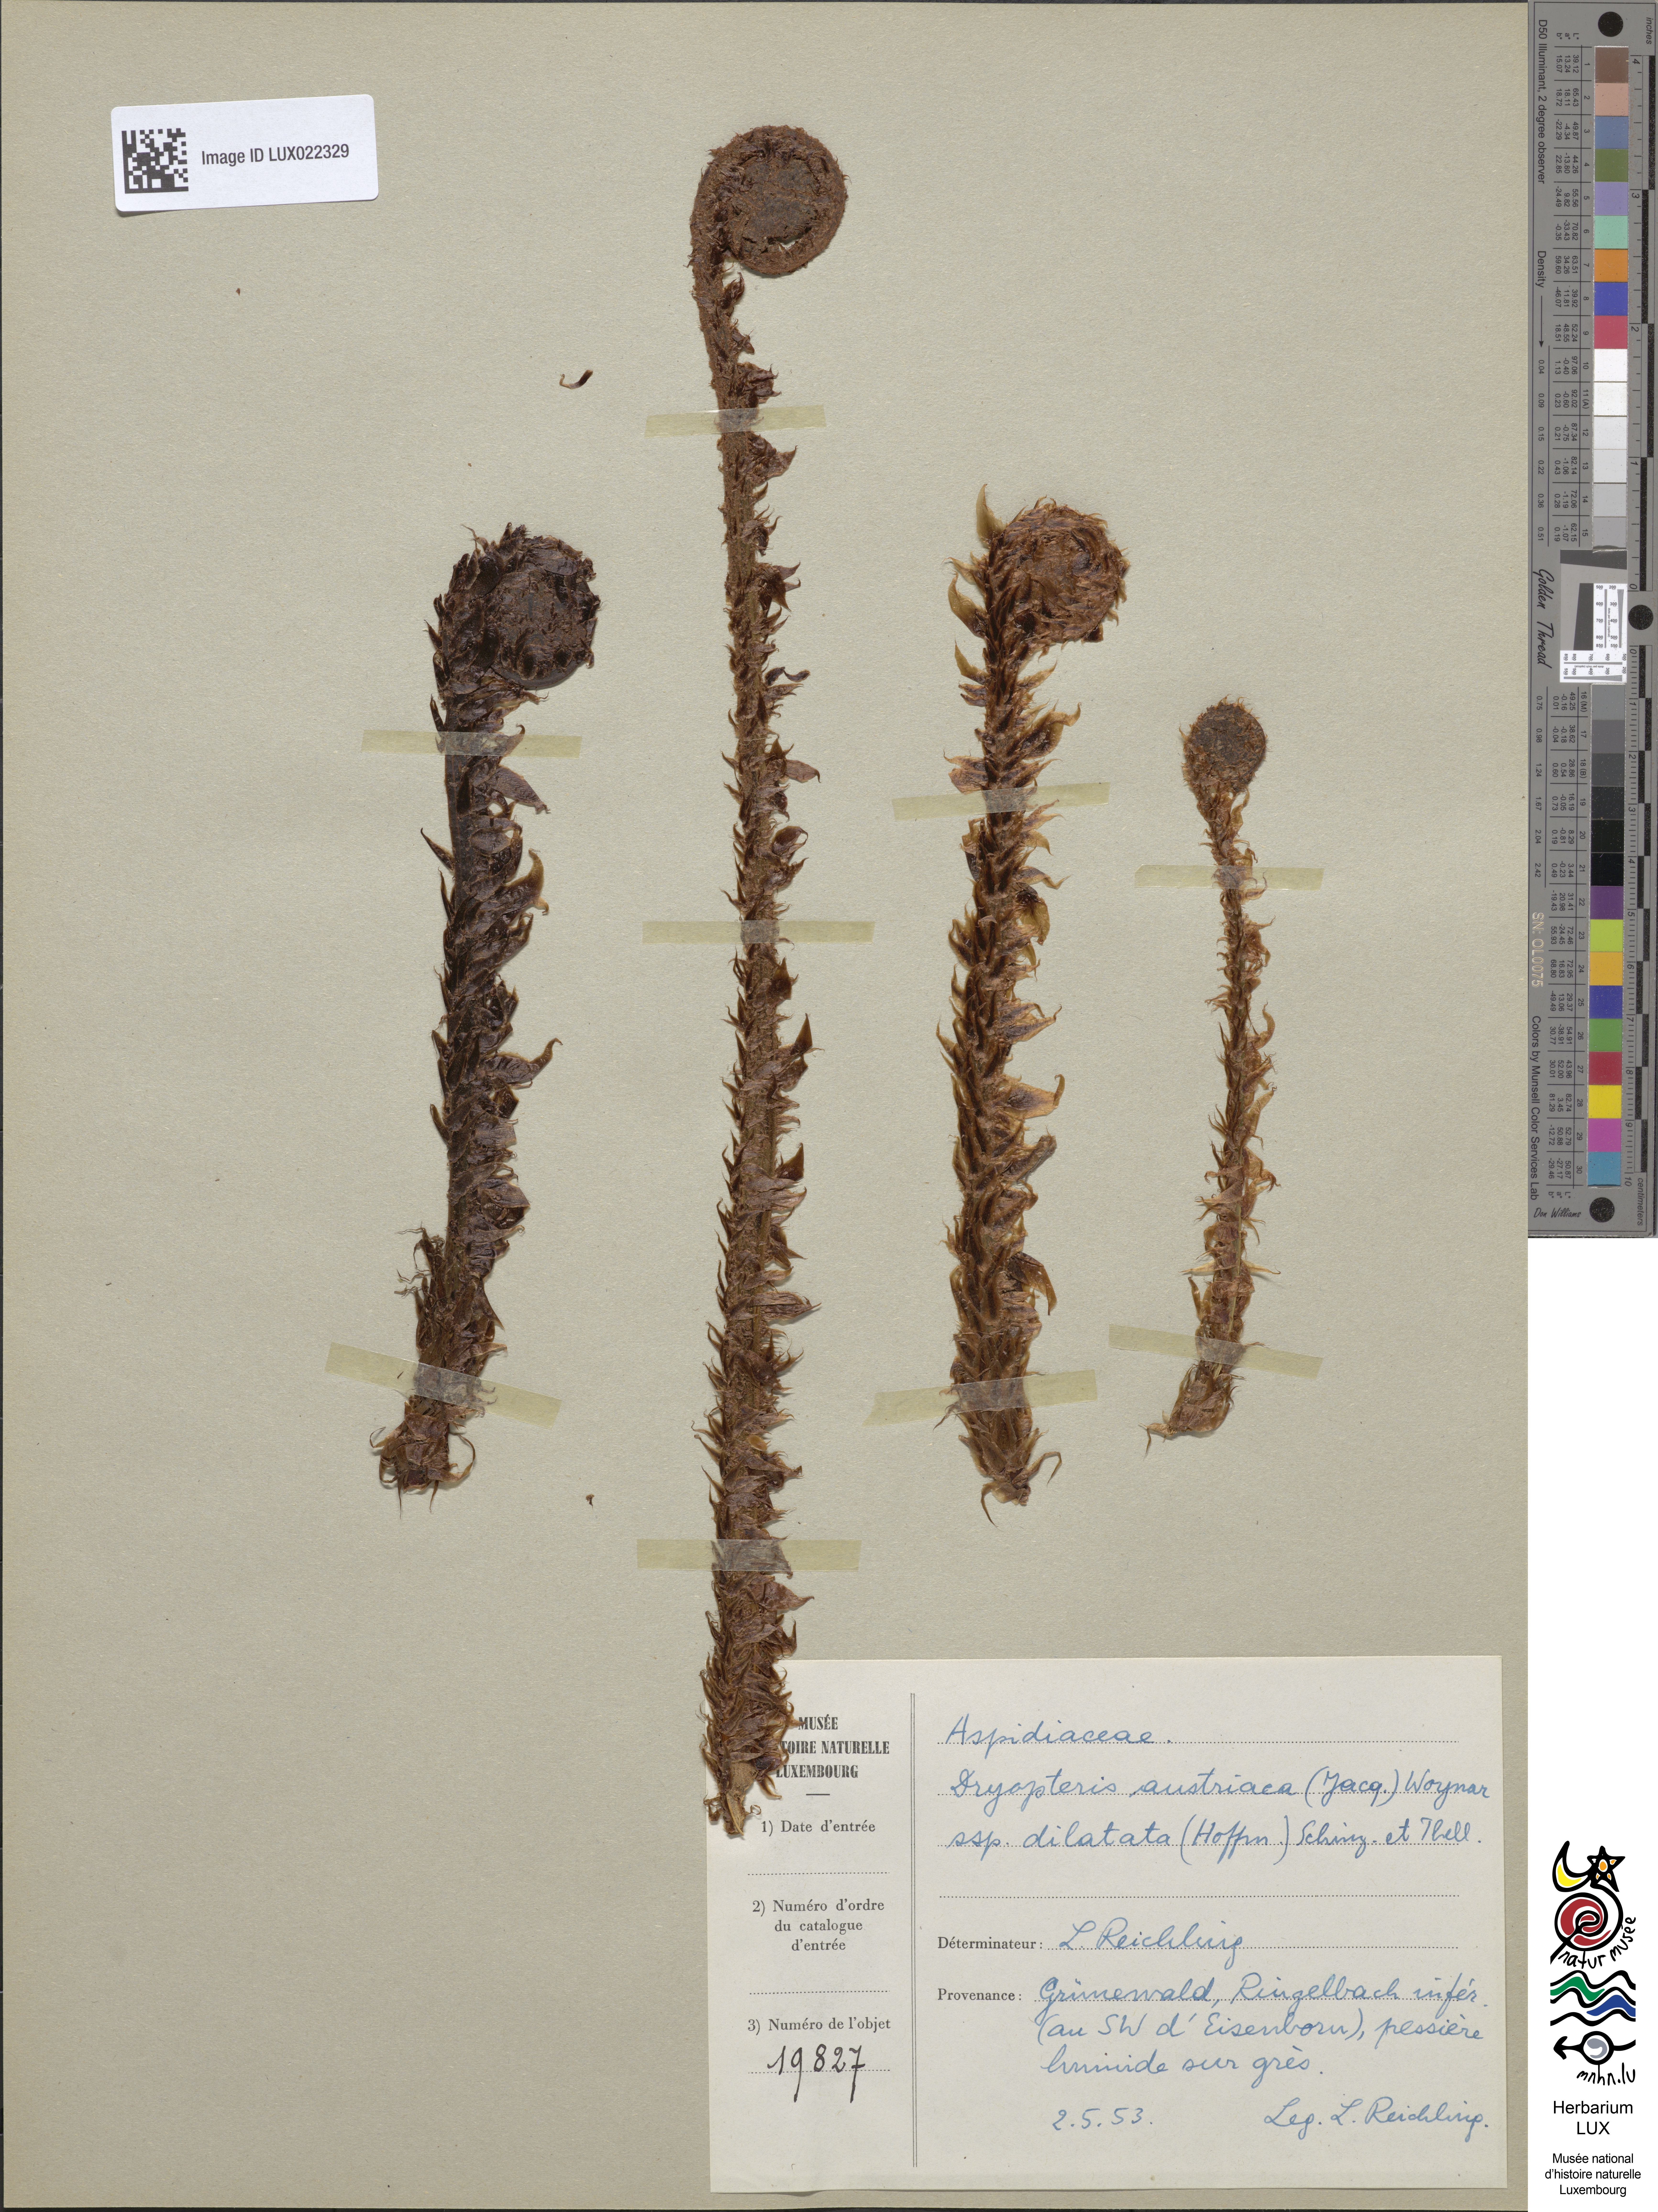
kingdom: Plantae
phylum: Tracheophyta
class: Polypodiopsida
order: Polypodiales
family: Dryopteridaceae
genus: Dryopteris
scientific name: Dryopteris dilatata
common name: Broad buckler-fern
